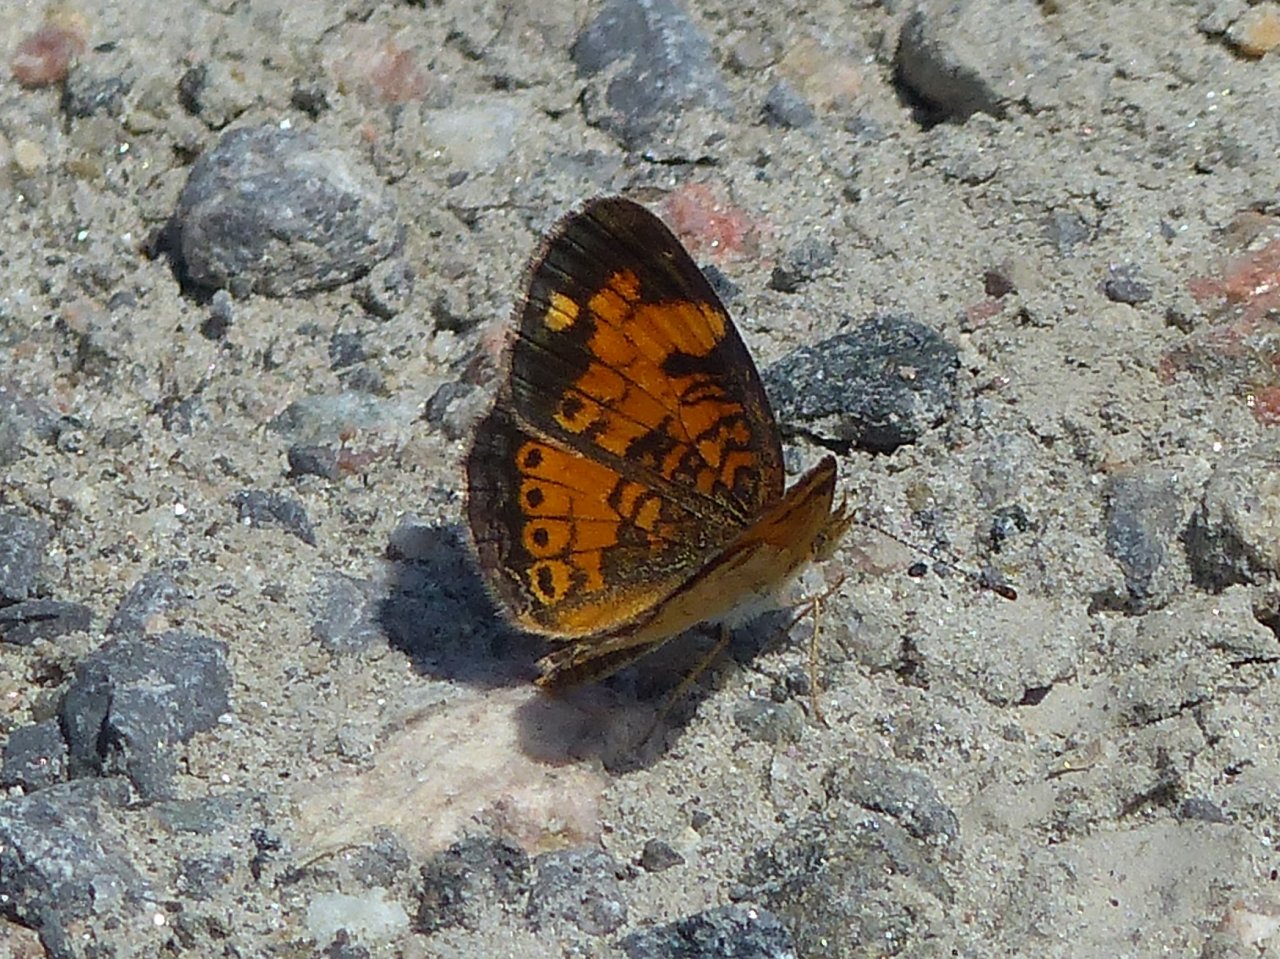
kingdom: Animalia
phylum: Arthropoda
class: Insecta
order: Lepidoptera
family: Nymphalidae
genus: Phyciodes
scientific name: Phyciodes tharos
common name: Northern Crescent
